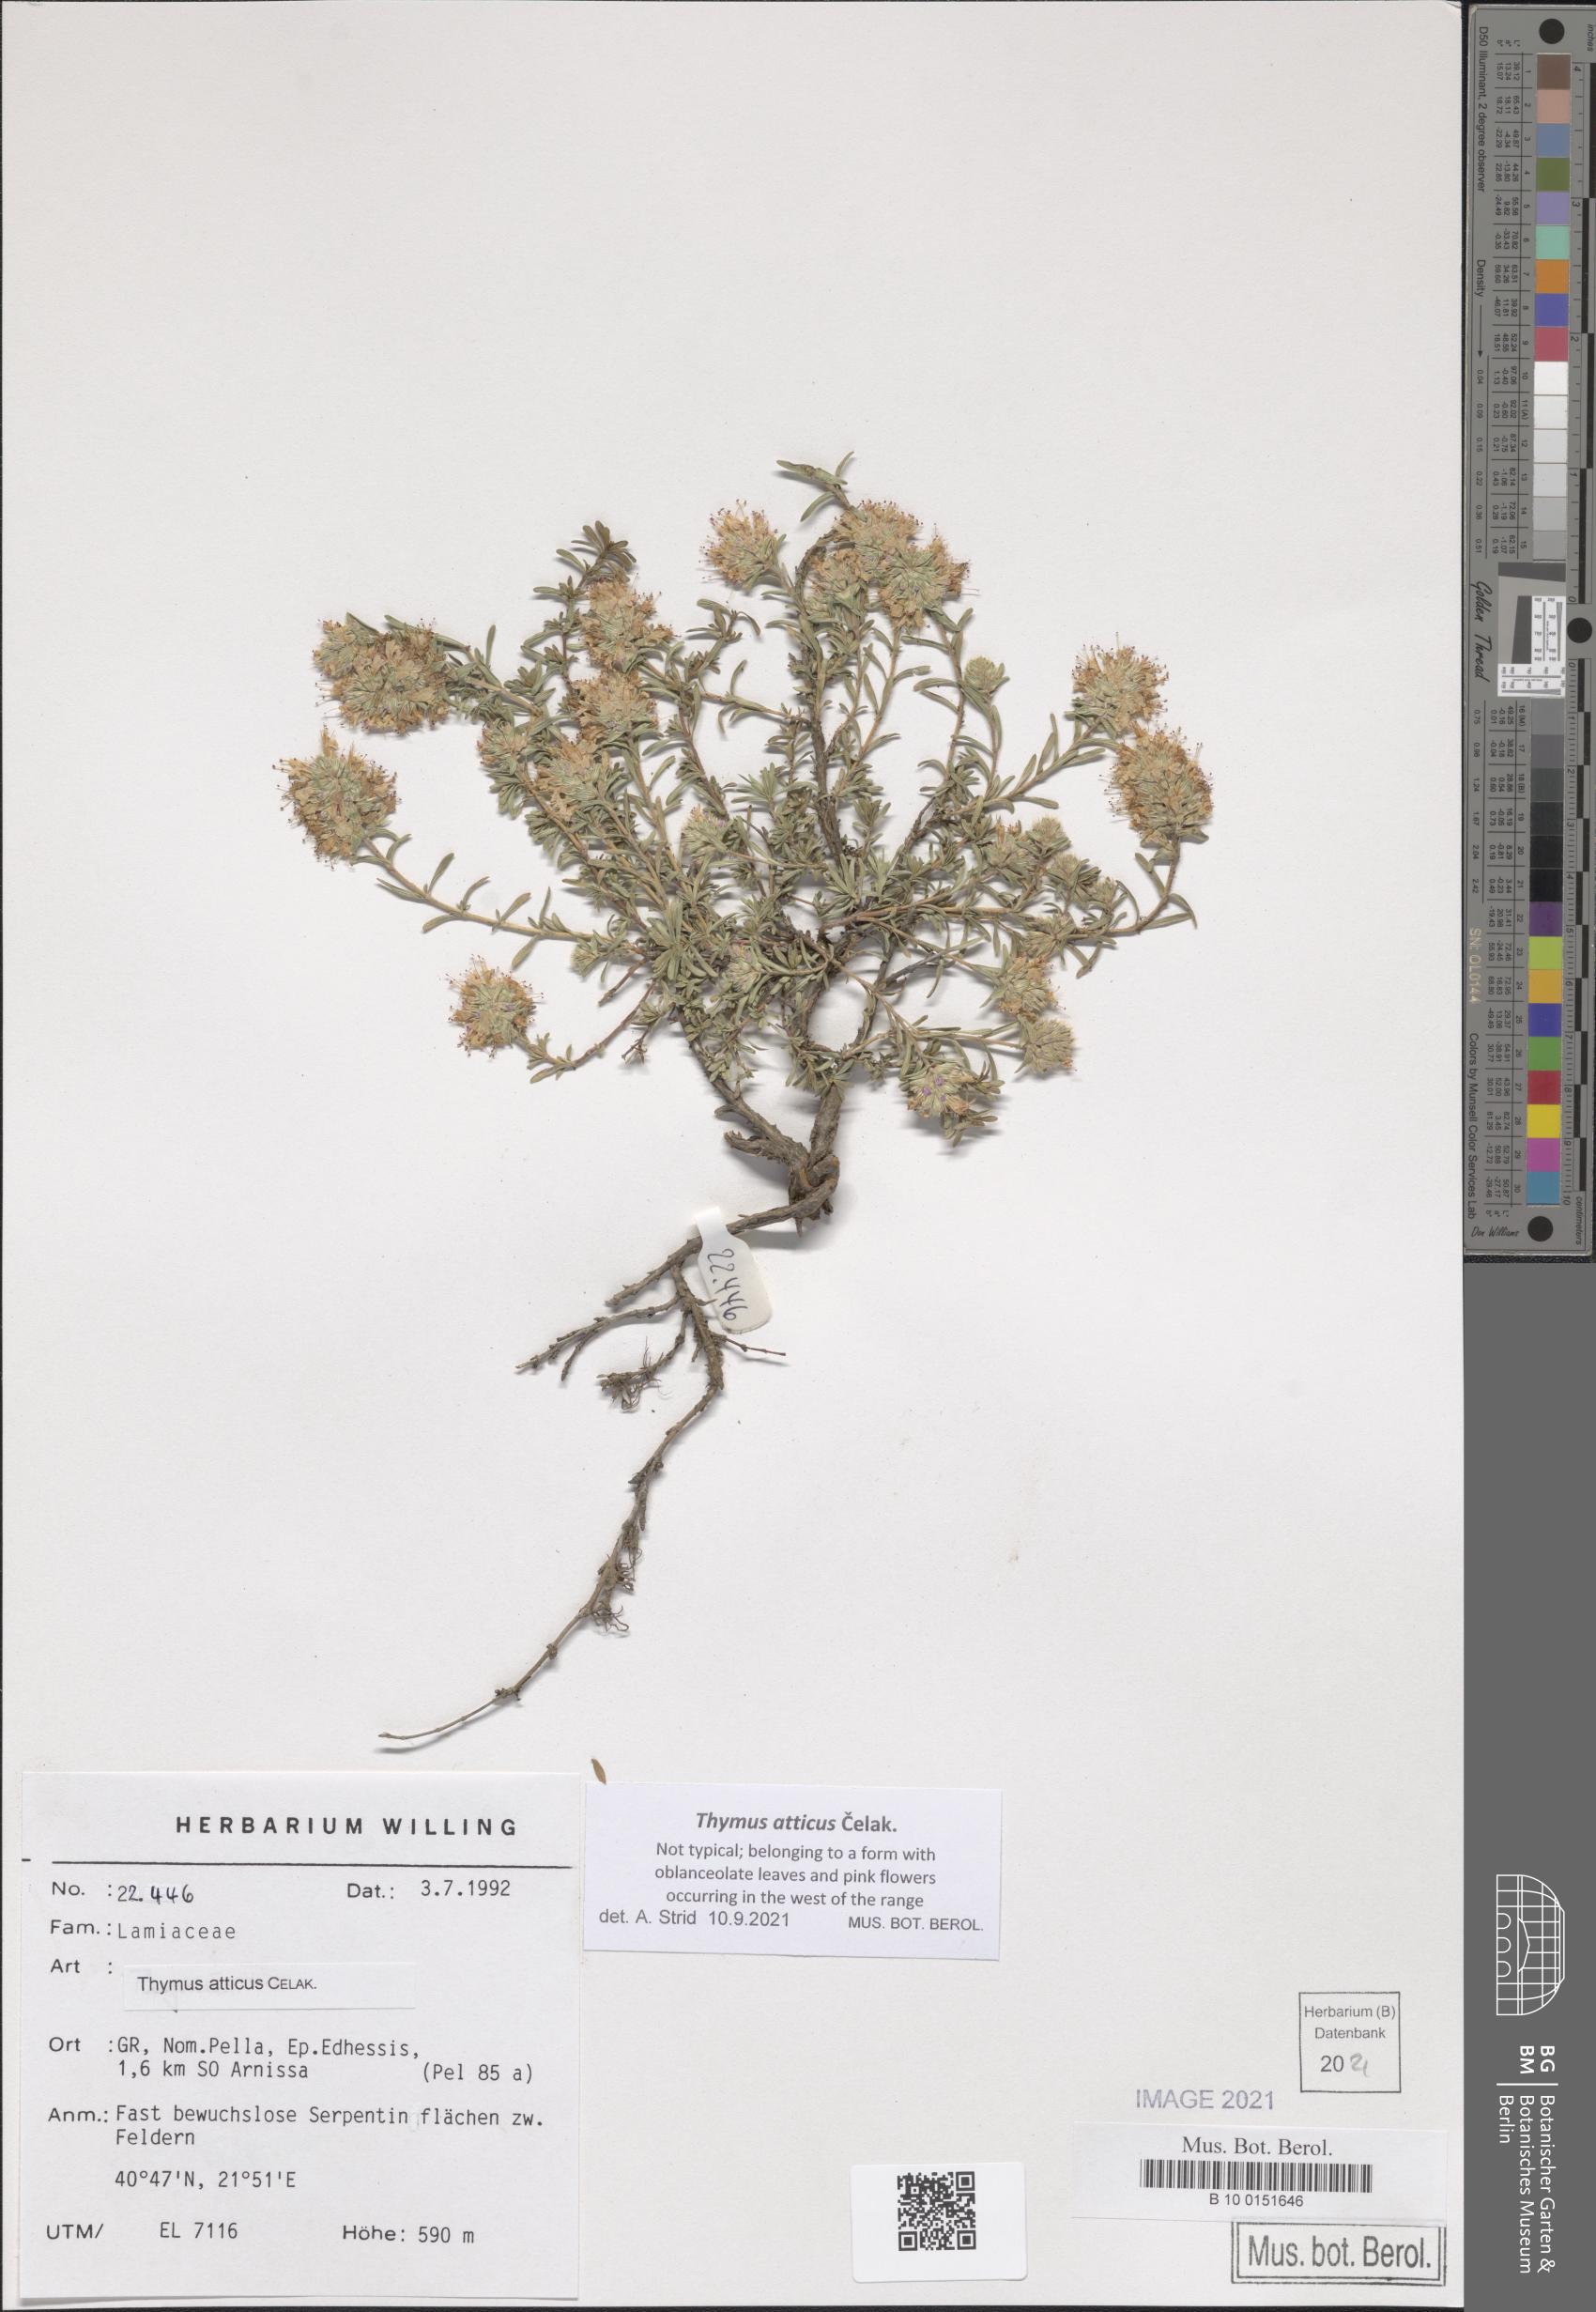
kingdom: Plantae
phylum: Tracheophyta
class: Magnoliopsida
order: Lamiales
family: Lamiaceae
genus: Thymus
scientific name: Thymus atticus
